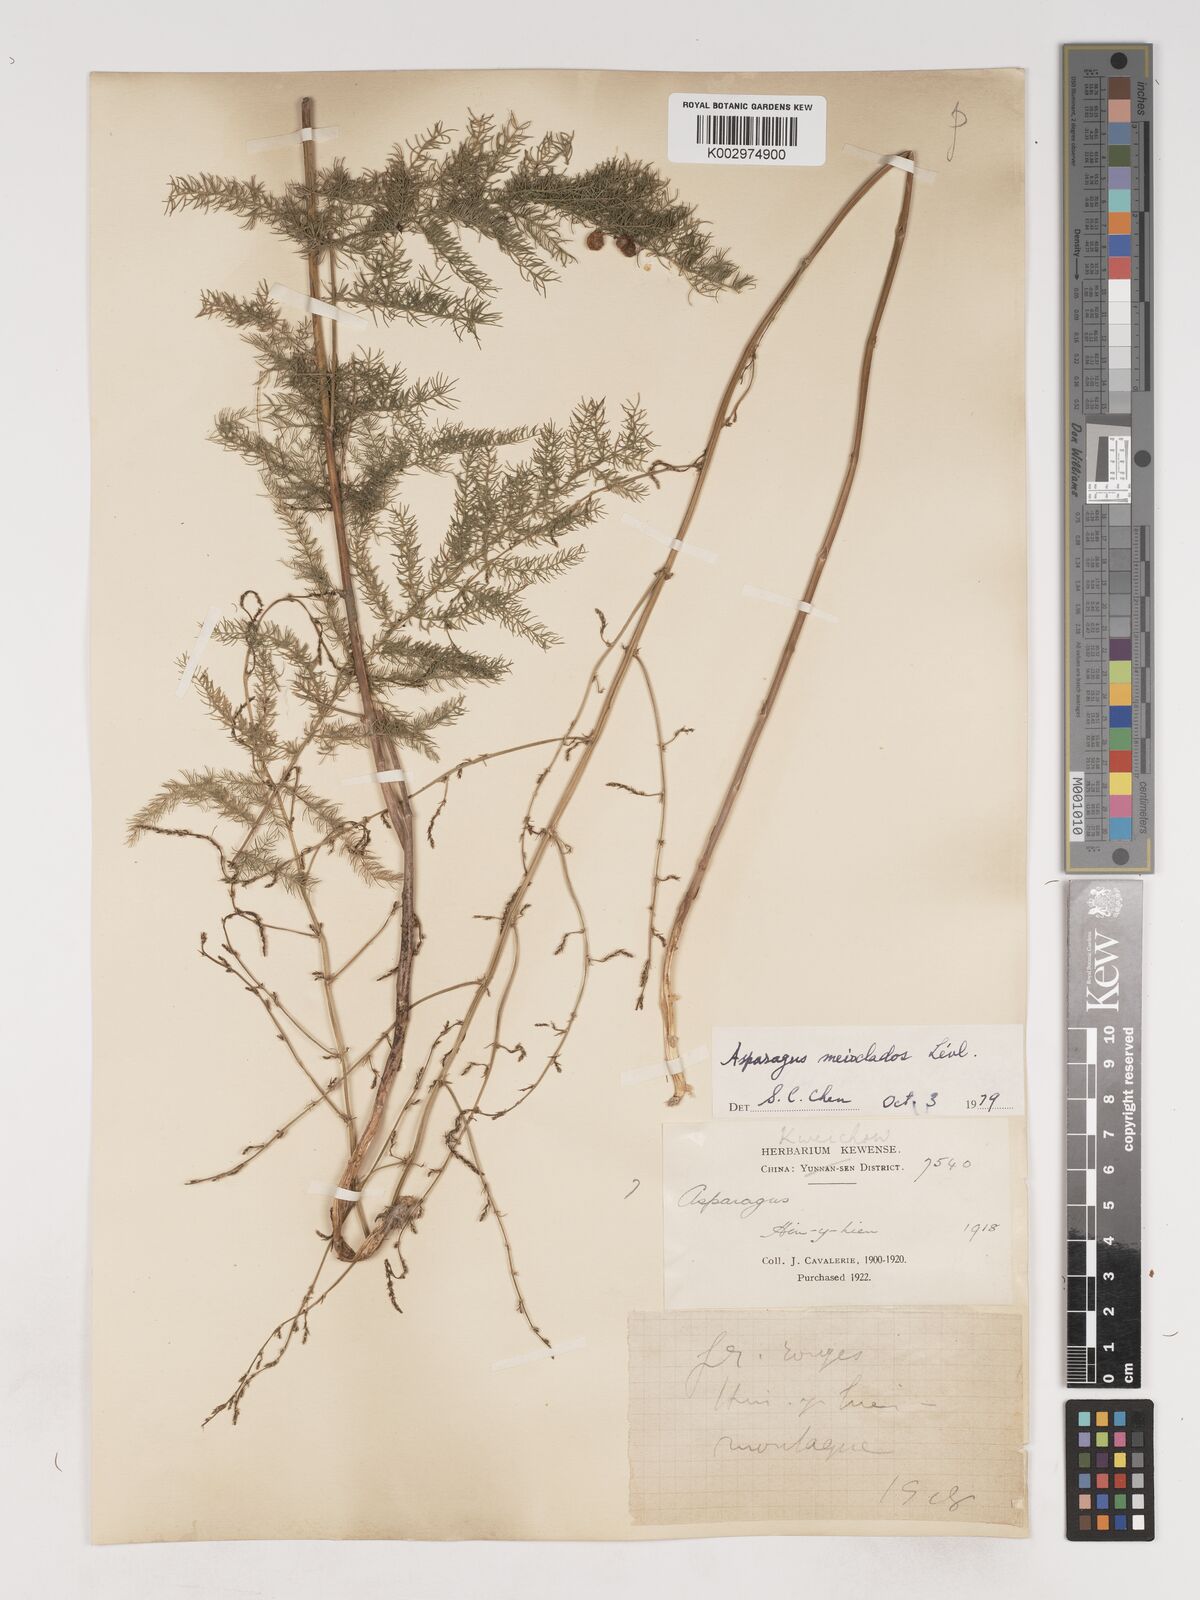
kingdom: Plantae
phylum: Tracheophyta
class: Liliopsida
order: Asparagales
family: Asparagaceae
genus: Asparagus
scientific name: Asparagus meioclados
